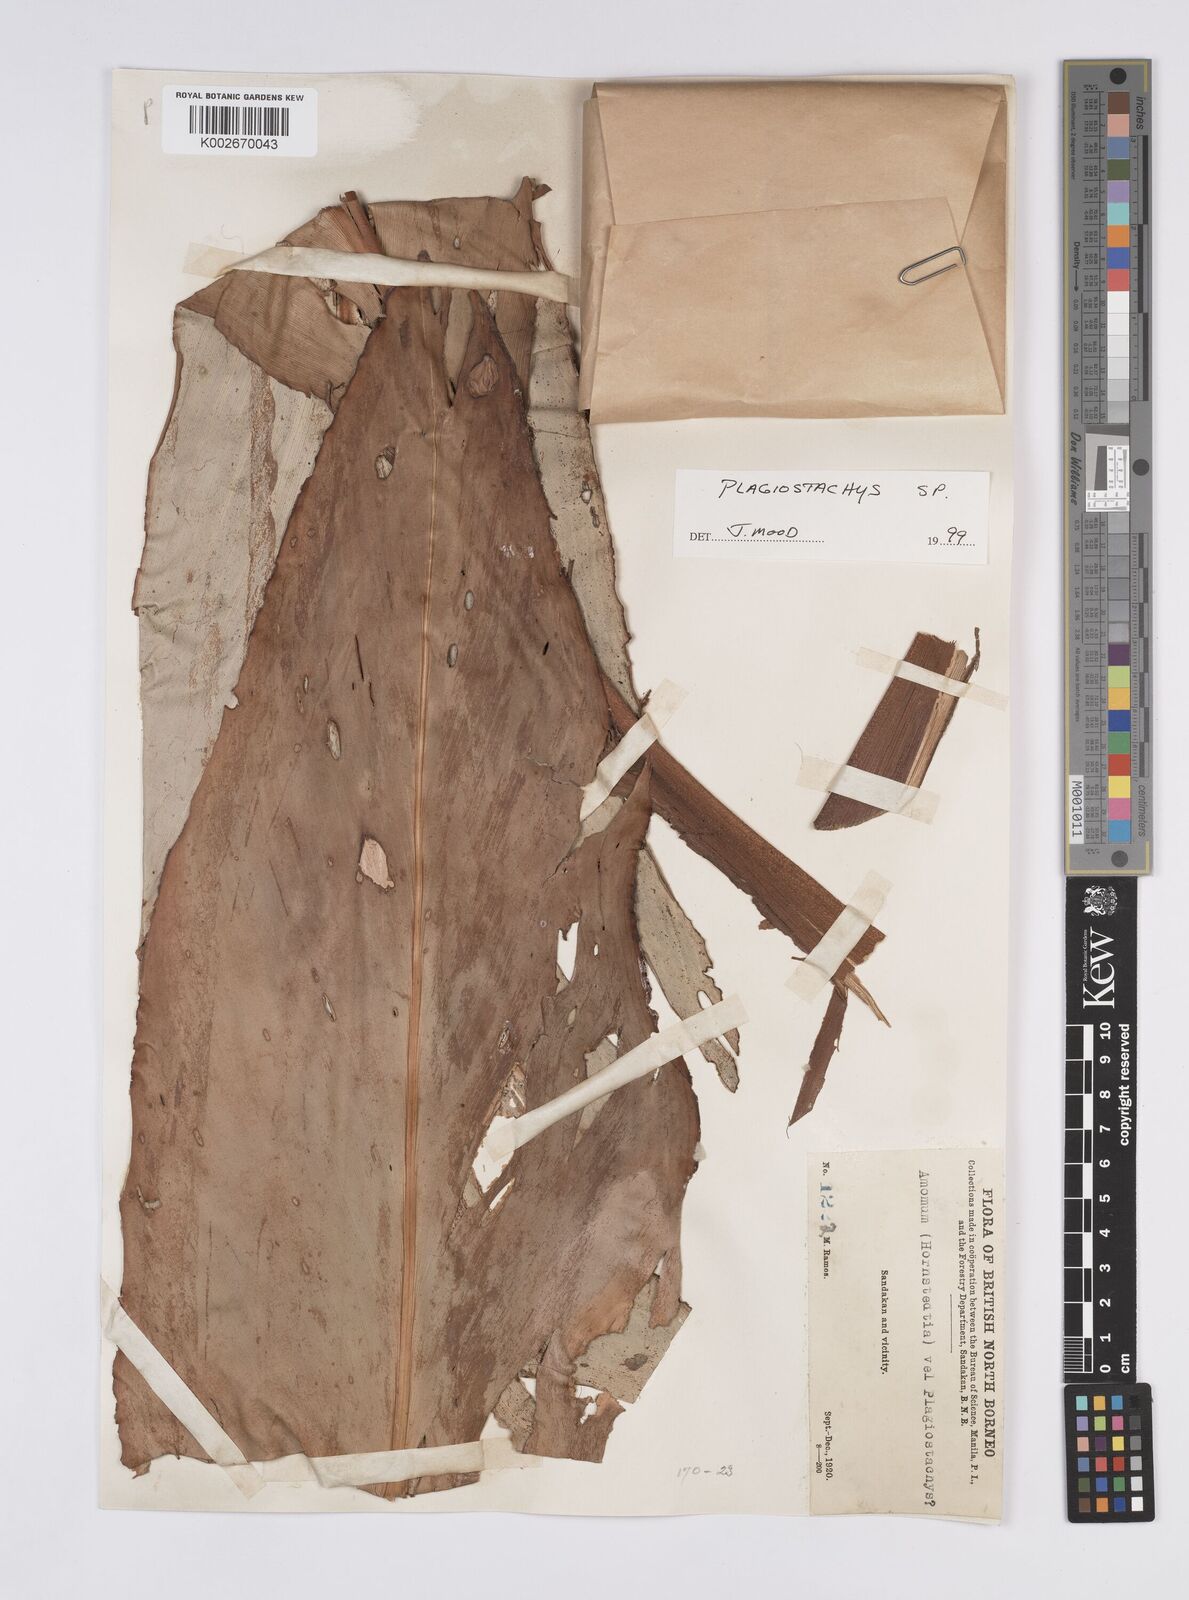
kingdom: Plantae
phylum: Tracheophyta
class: Liliopsida
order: Zingiberales
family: Zingiberaceae
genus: Plagiostachys
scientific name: Plagiostachys
